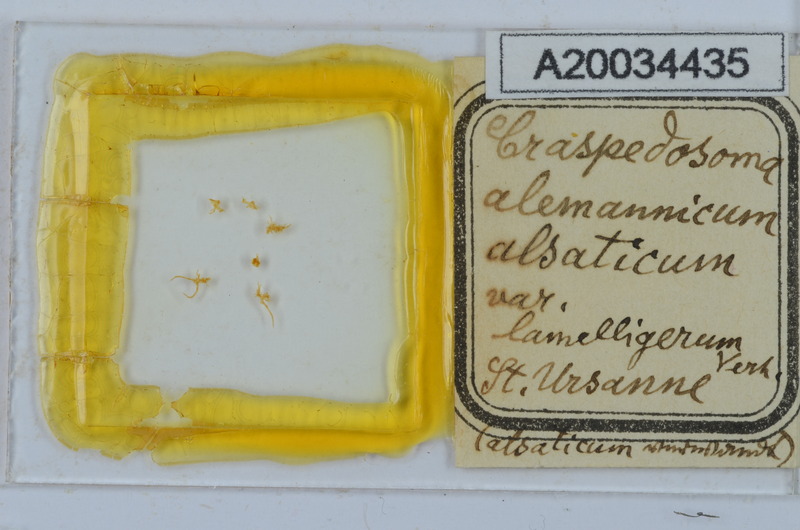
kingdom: Animalia
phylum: Arthropoda
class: Diplopoda
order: Chordeumatida
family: Craspedosomatidae
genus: Craspedosoma
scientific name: Craspedosoma rawlinsii
